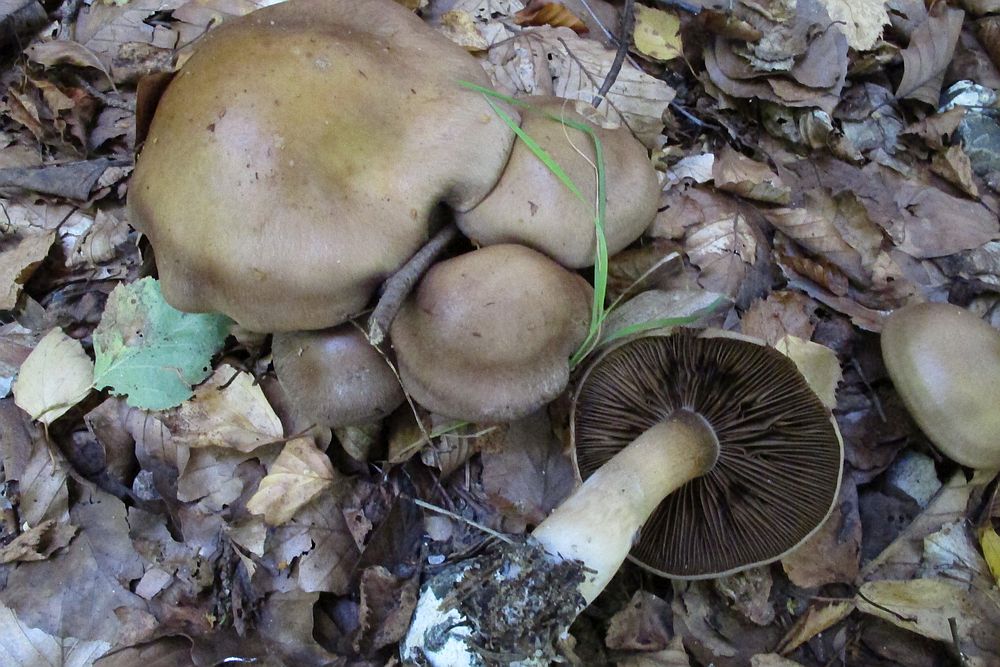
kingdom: Fungi
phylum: Basidiomycota
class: Agaricomycetes
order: Agaricales
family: Cortinariaceae
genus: Cortinarius
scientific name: Cortinarius
